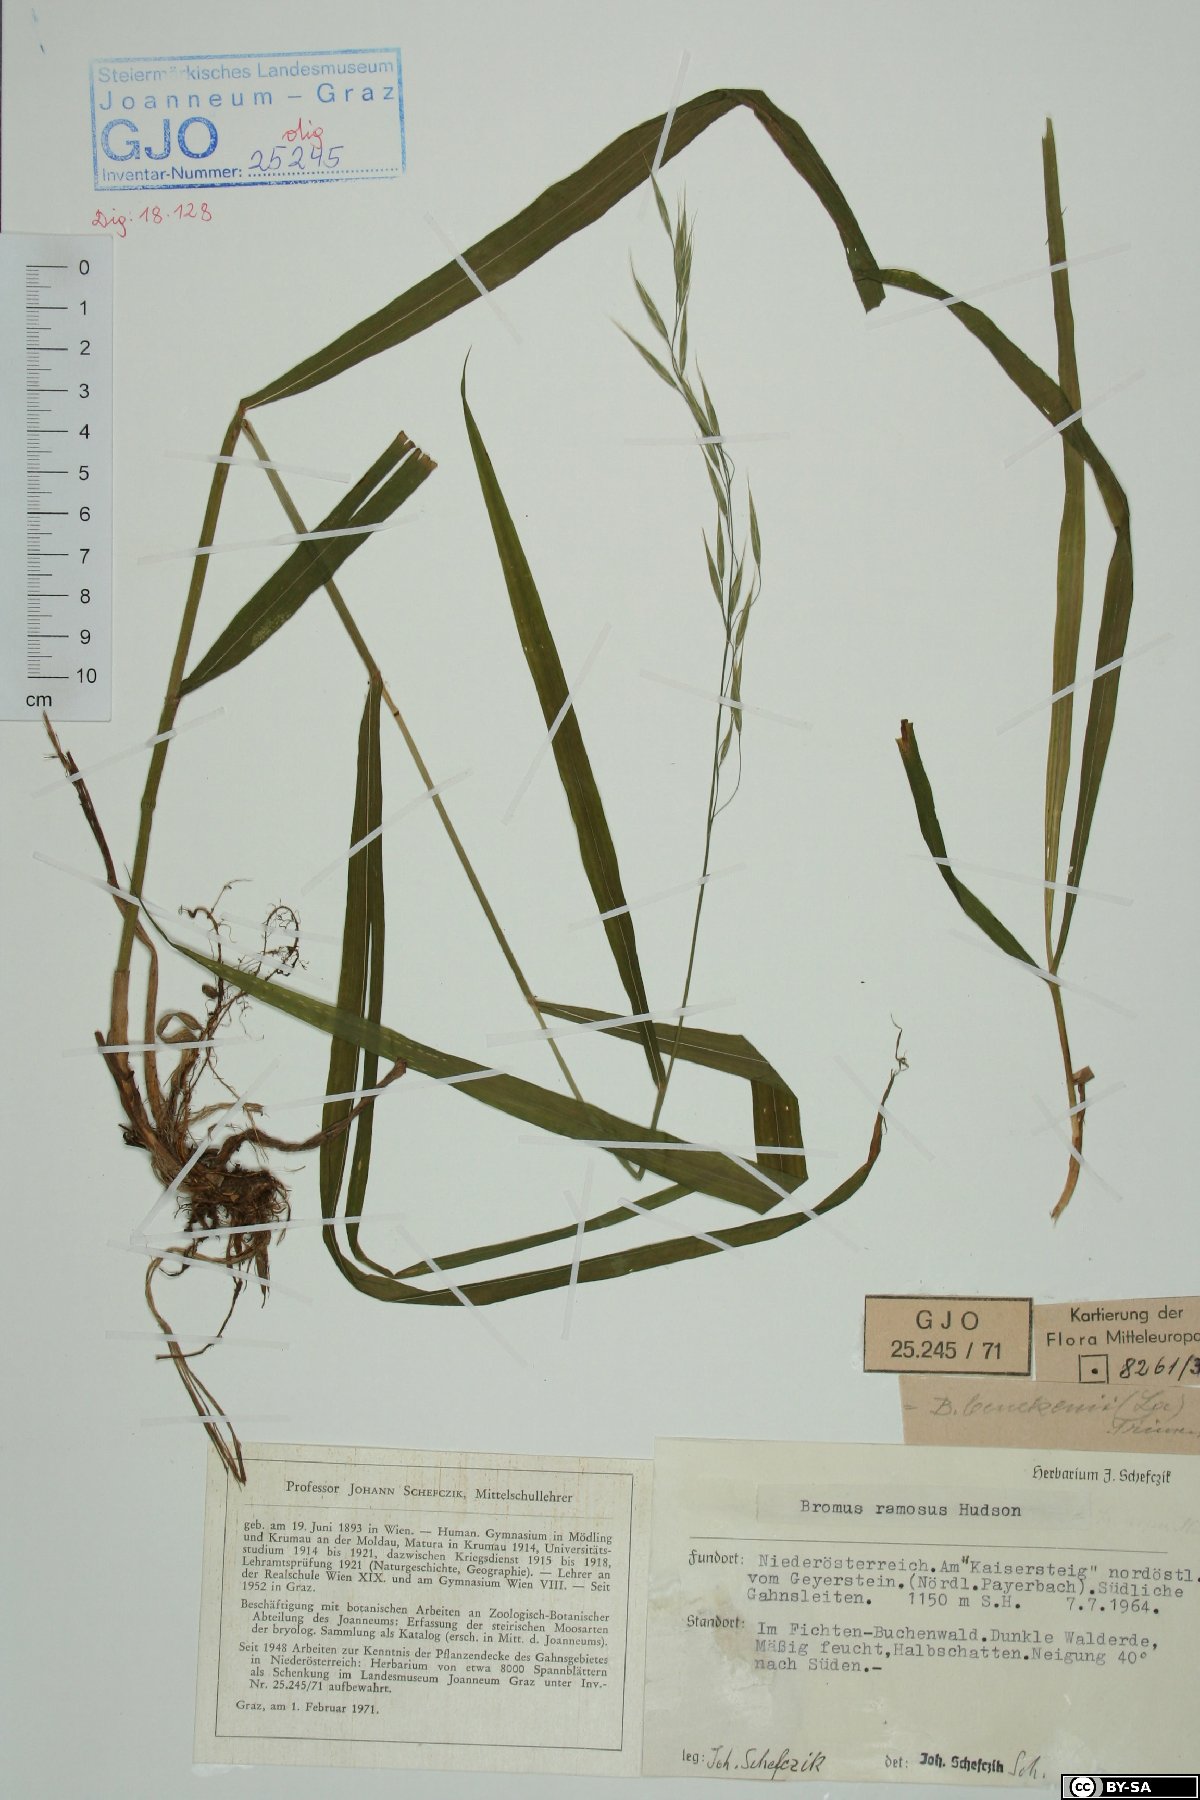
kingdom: Plantae
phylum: Tracheophyta
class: Liliopsida
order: Poales
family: Poaceae
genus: Bromus
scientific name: Bromus ramosus
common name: Hairy brome
